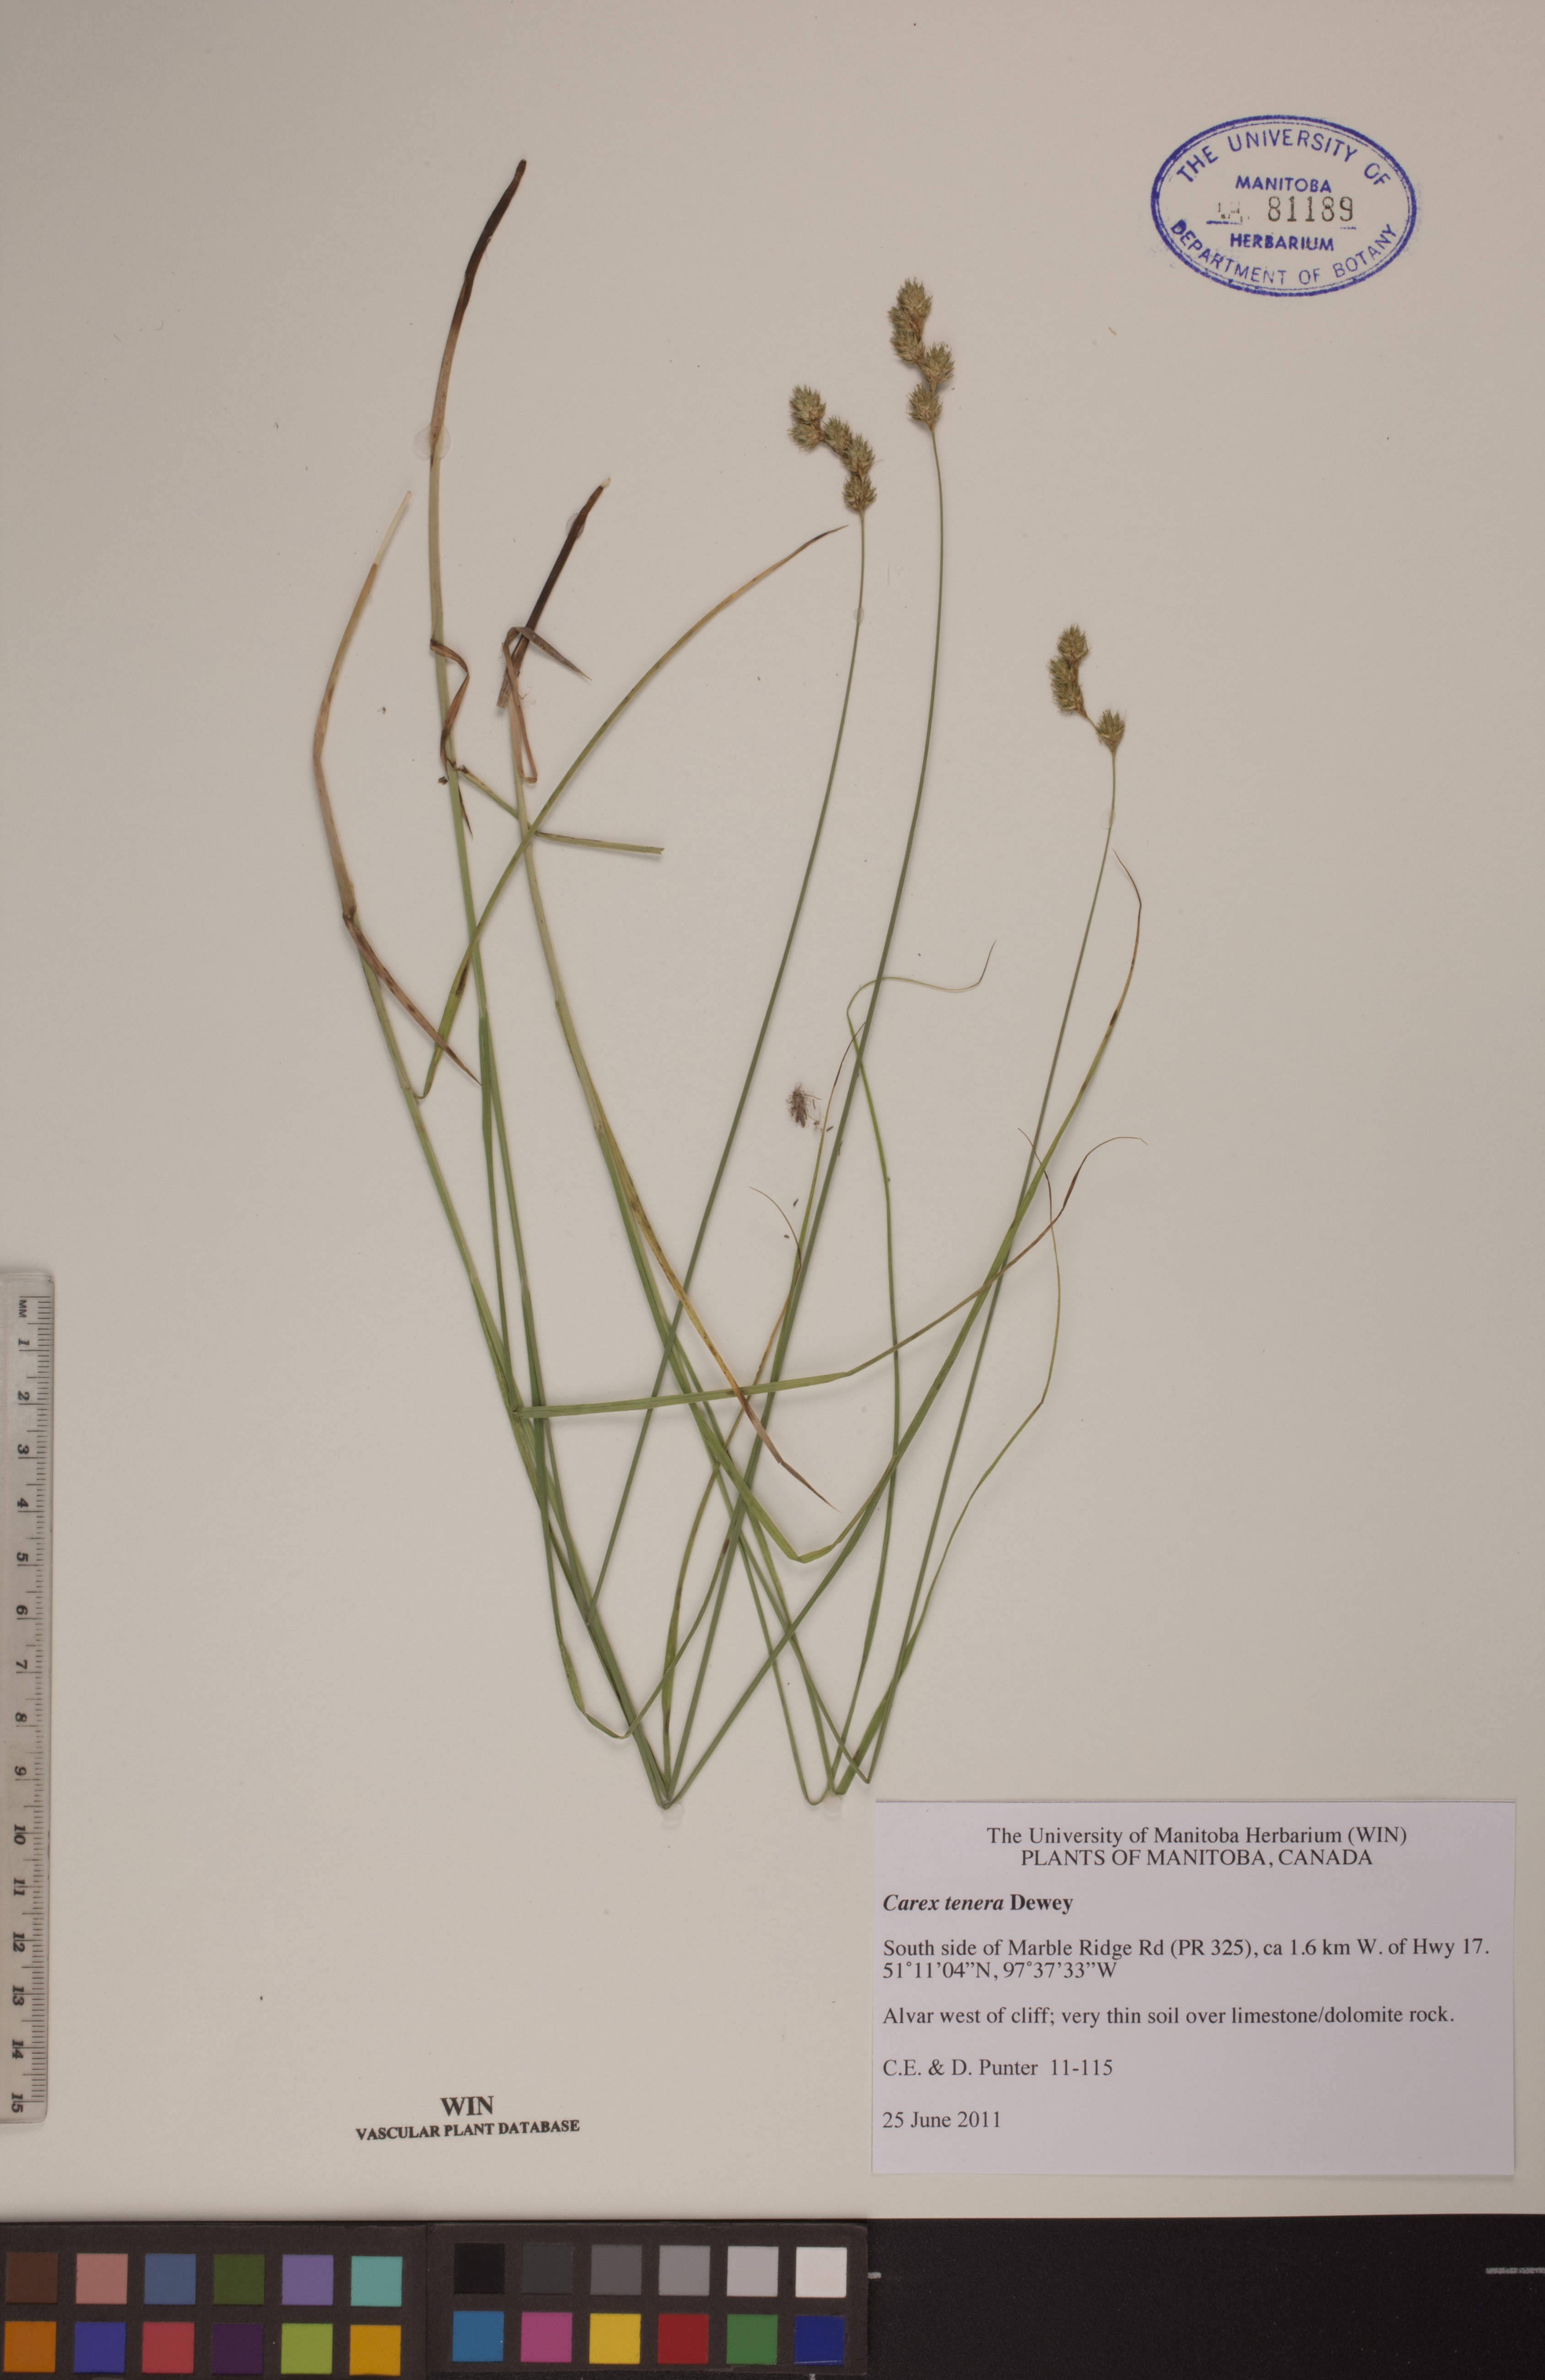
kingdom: Plantae
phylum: Tracheophyta
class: Liliopsida
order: Poales
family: Cyperaceae
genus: Carex
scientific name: Carex tenera
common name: Broad-fruited sedge
